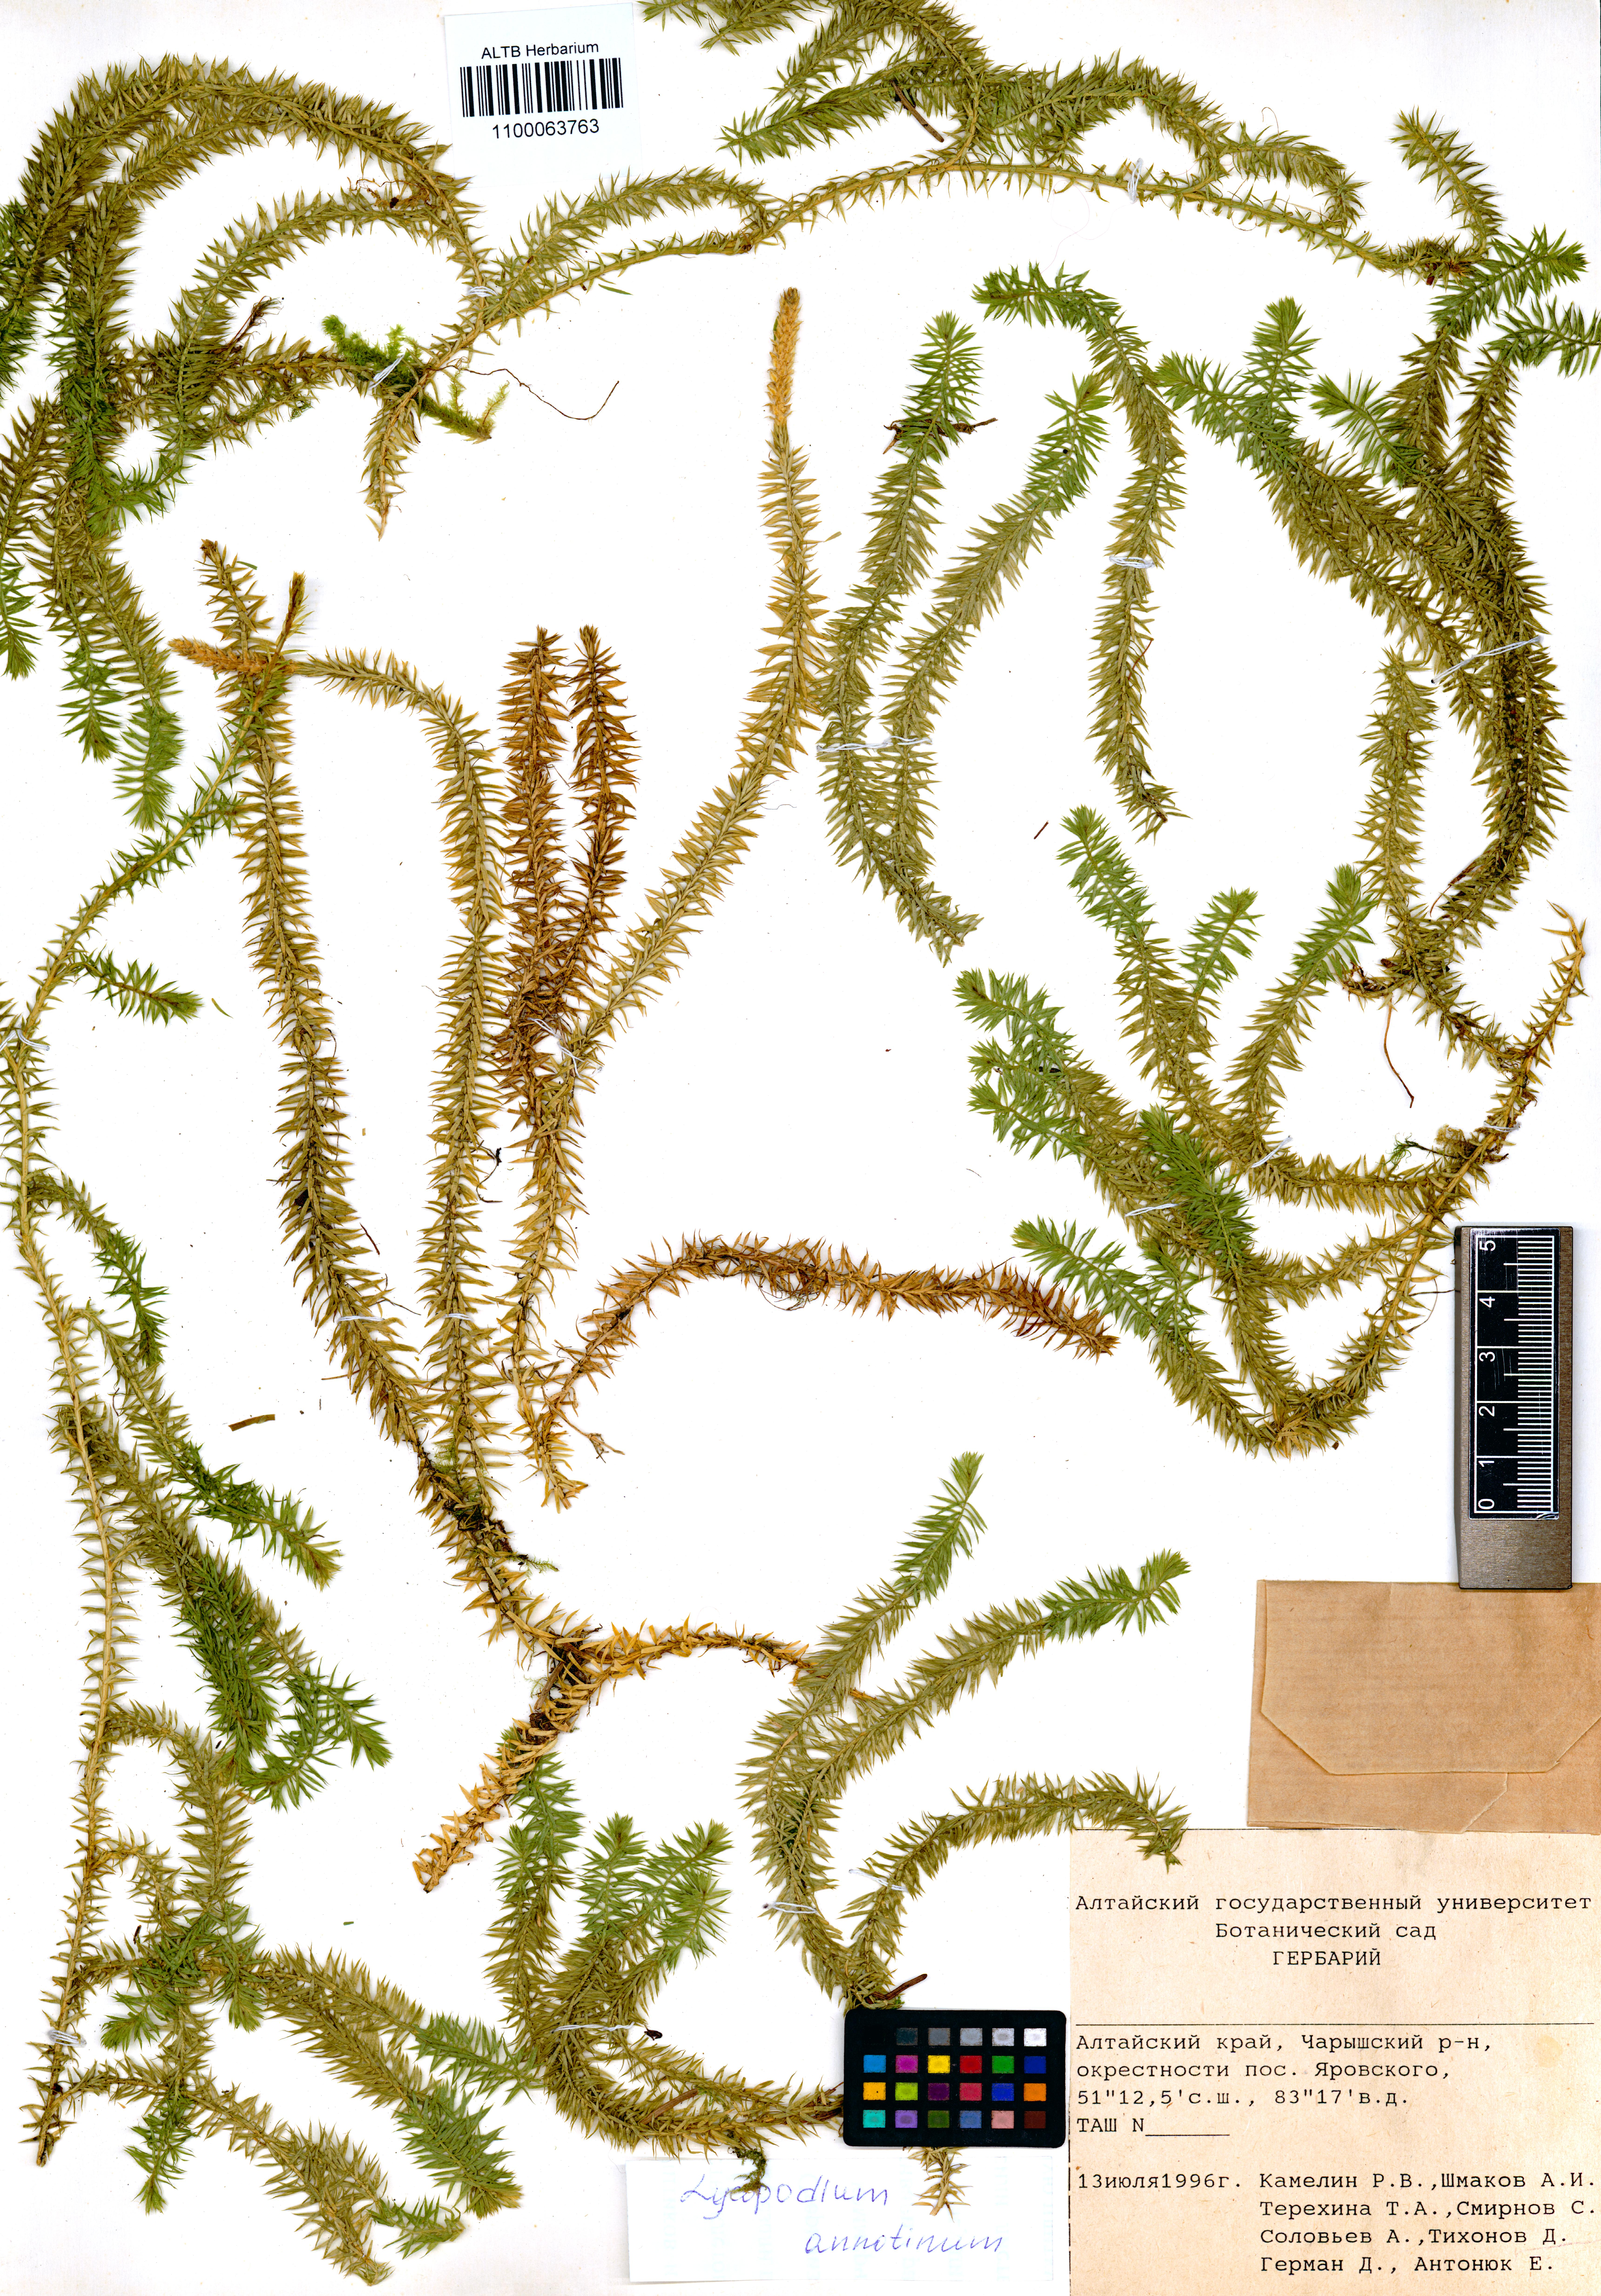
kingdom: Plantae
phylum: Tracheophyta
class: Lycopodiopsida
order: Lycopodiales
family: Lycopodiaceae
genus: Spinulum
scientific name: Spinulum annotinum
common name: Interrupted club-moss
